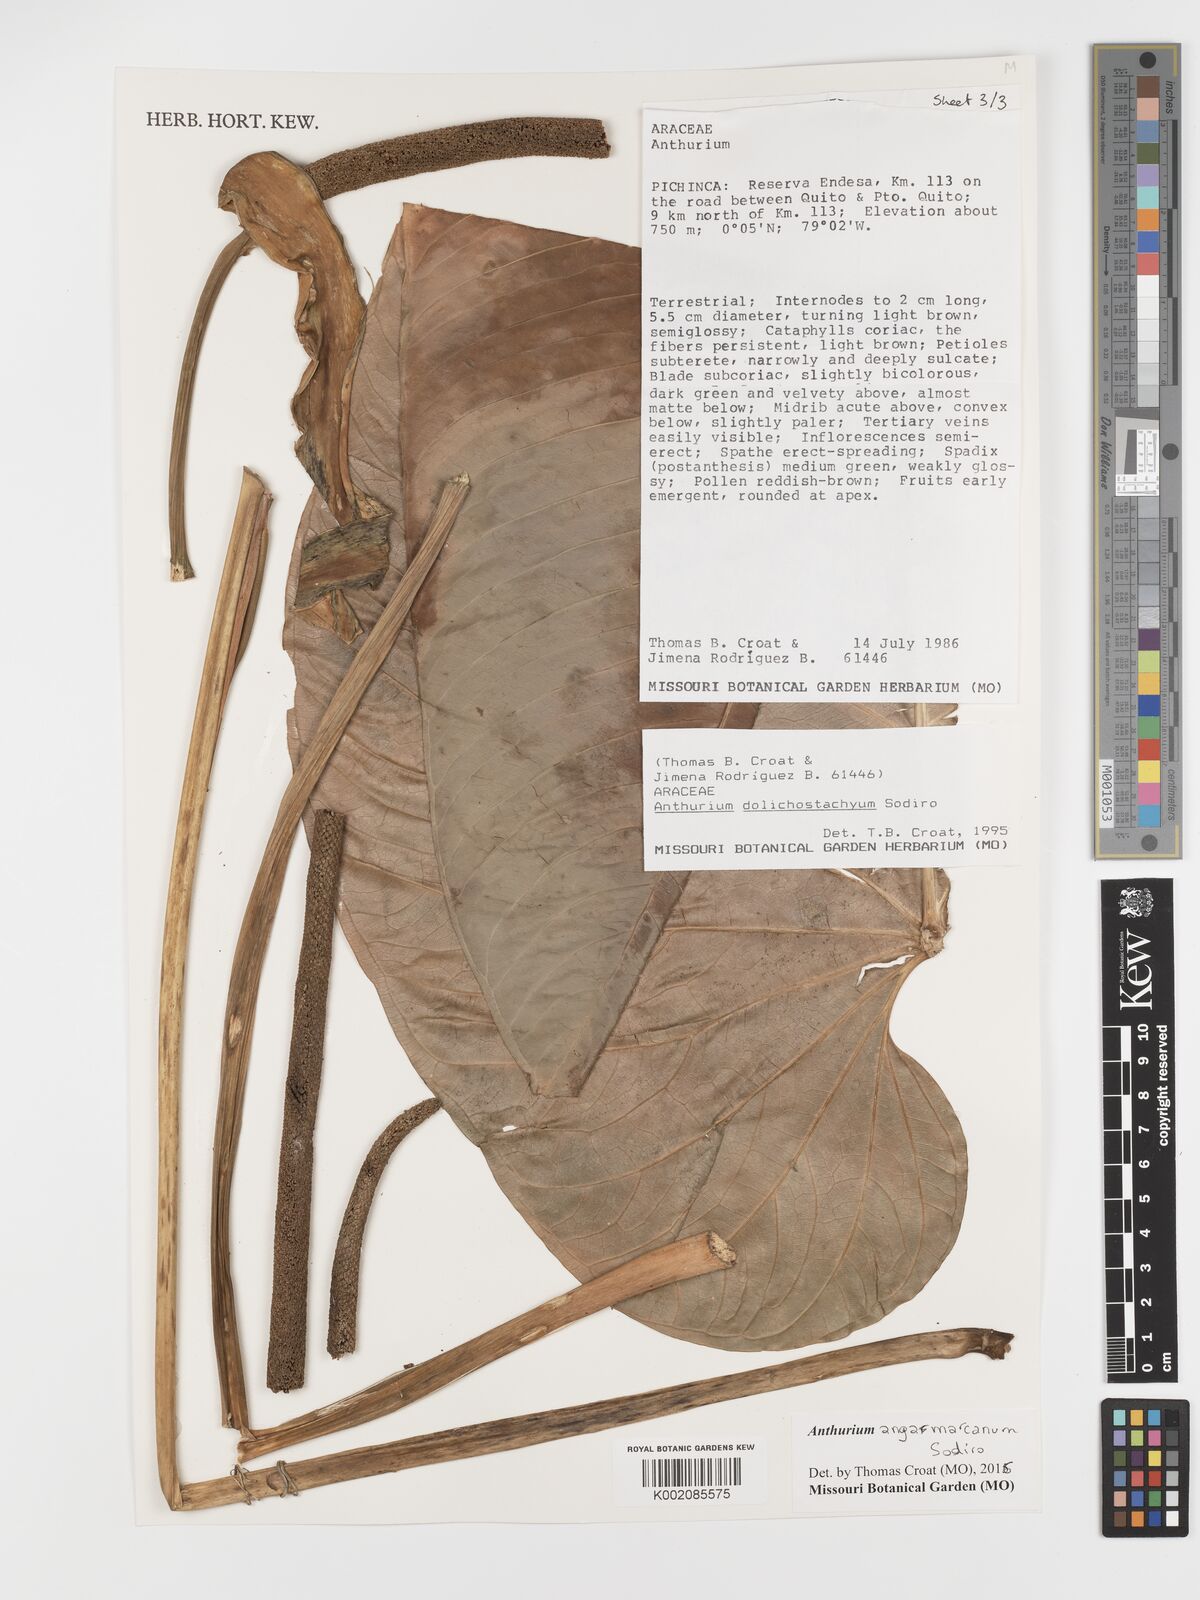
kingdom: Plantae
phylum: Tracheophyta
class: Liliopsida
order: Alismatales
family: Araceae
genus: Anthurium
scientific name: Anthurium dolichostachyum
